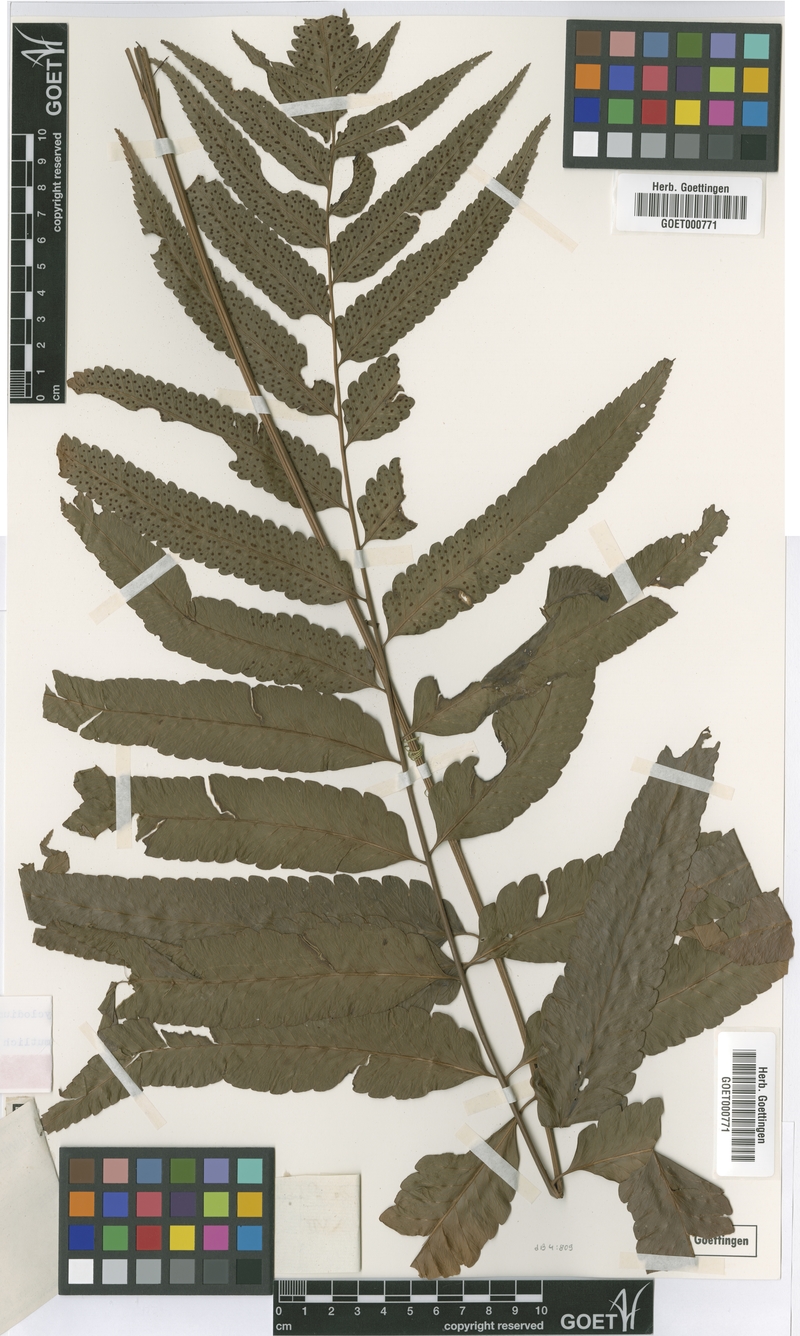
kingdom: Plantae
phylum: Tracheophyta
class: Polypodiopsida
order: Polypodiales
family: Dryopteridaceae
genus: Cyclodium
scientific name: Cyclodium meniscioides
